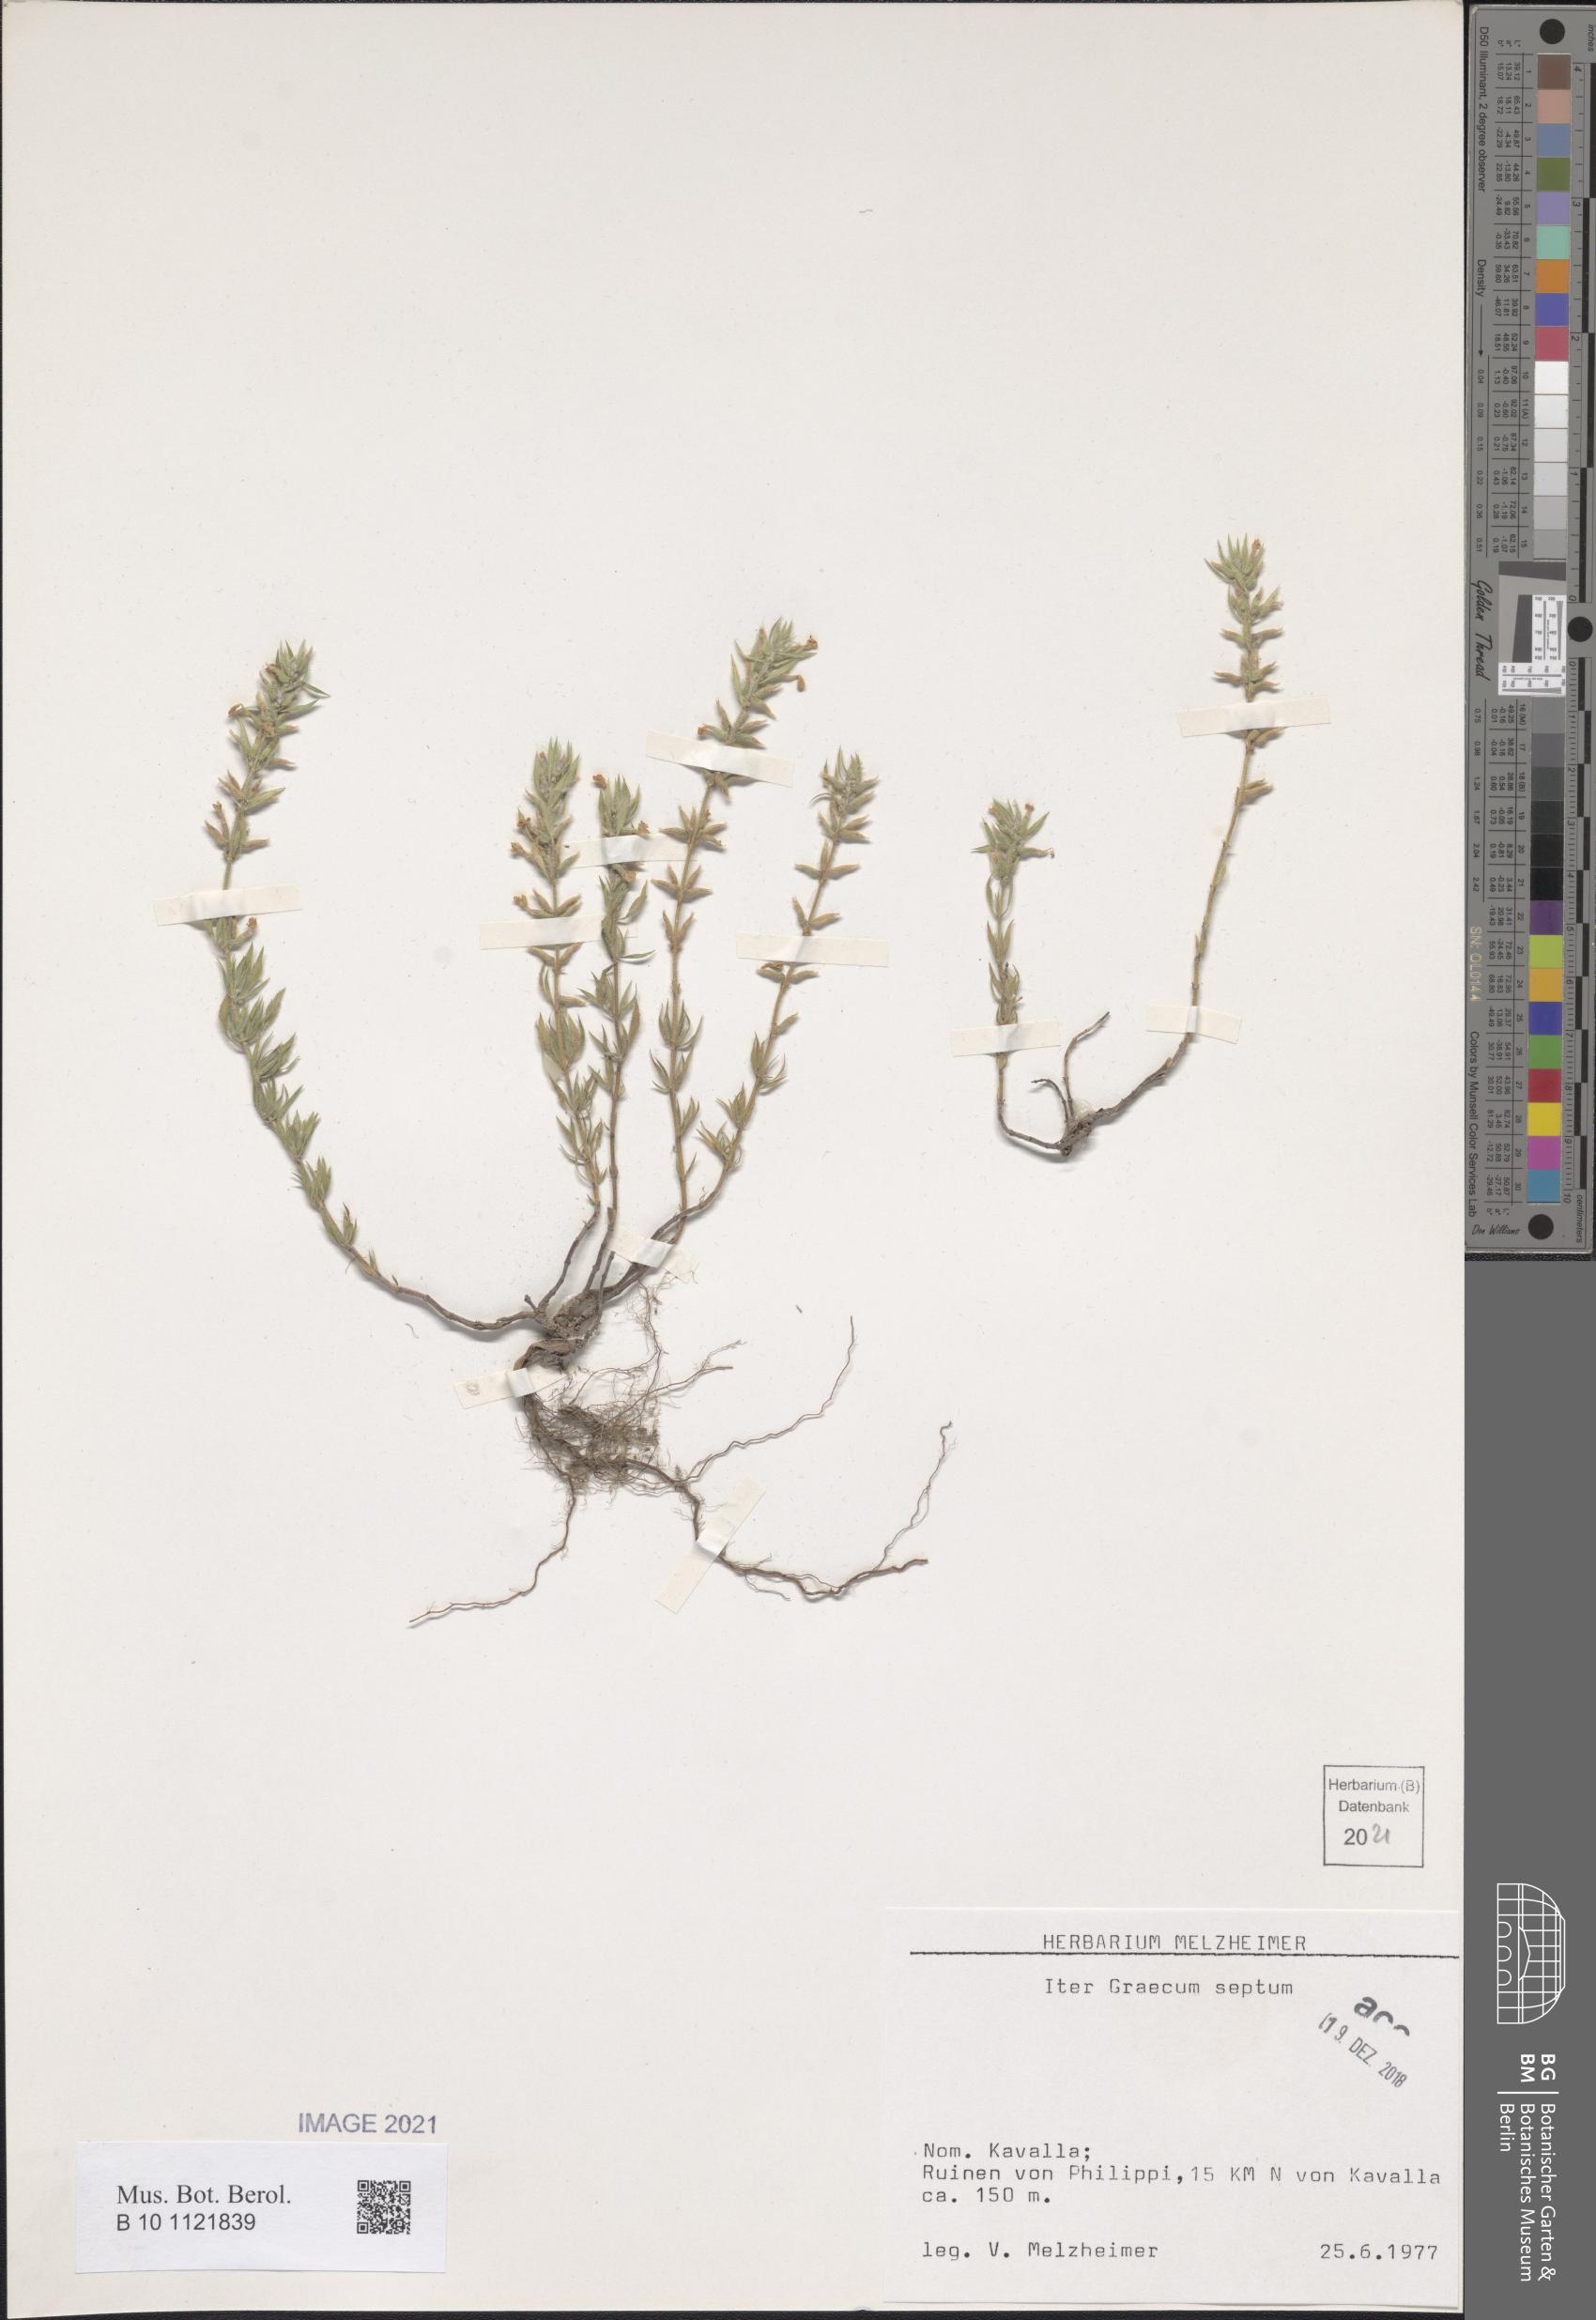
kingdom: Plantae
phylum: Tracheophyta
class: Magnoliopsida
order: Lamiales
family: Lamiaceae
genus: Acinos
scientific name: Acinos
